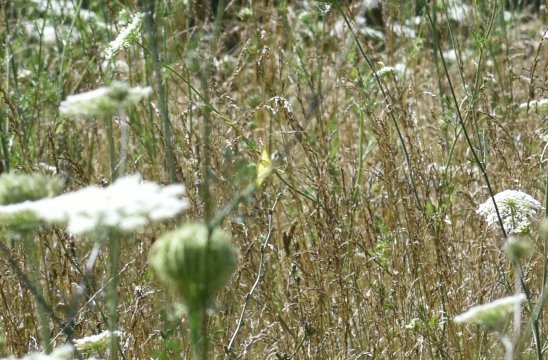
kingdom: Animalia
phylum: Arthropoda
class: Insecta
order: Lepidoptera
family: Pieridae
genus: Colias
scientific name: Colias philodice
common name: Clouded Sulphur
